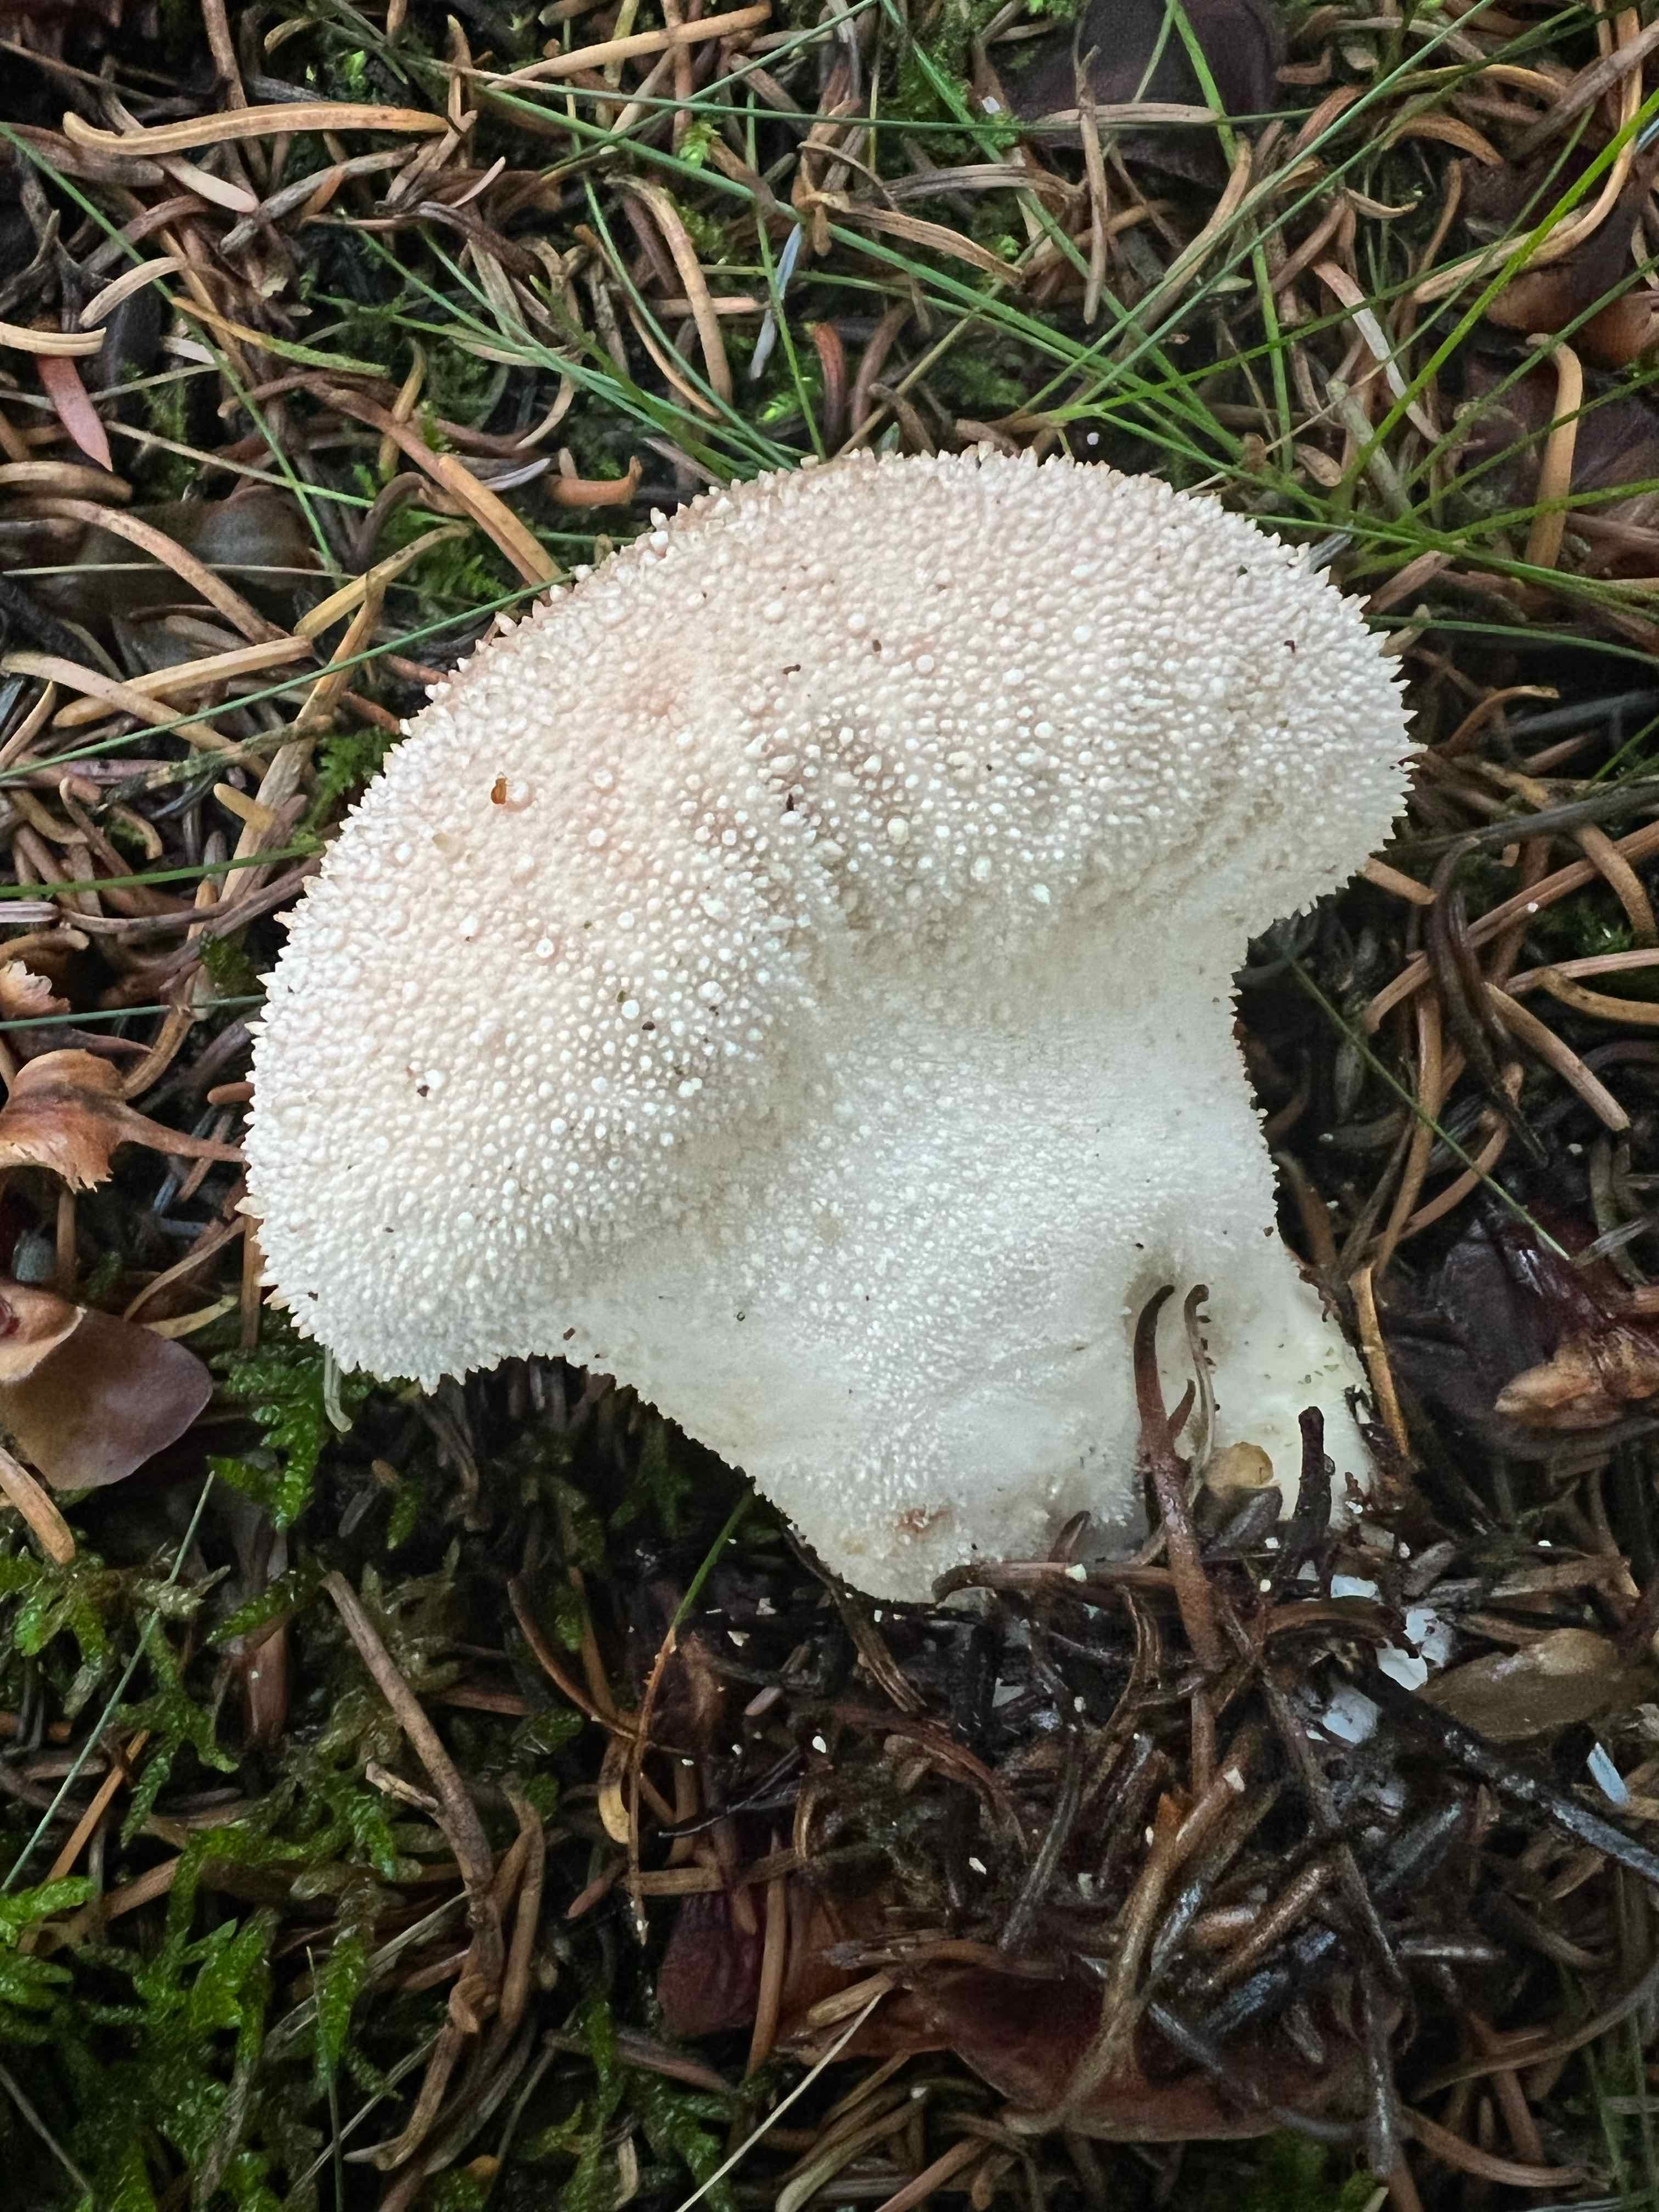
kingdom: Fungi
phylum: Basidiomycota
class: Agaricomycetes
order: Agaricales
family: Lycoperdaceae
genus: Lycoperdon
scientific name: Lycoperdon perlatum
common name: krystal-støvbold
